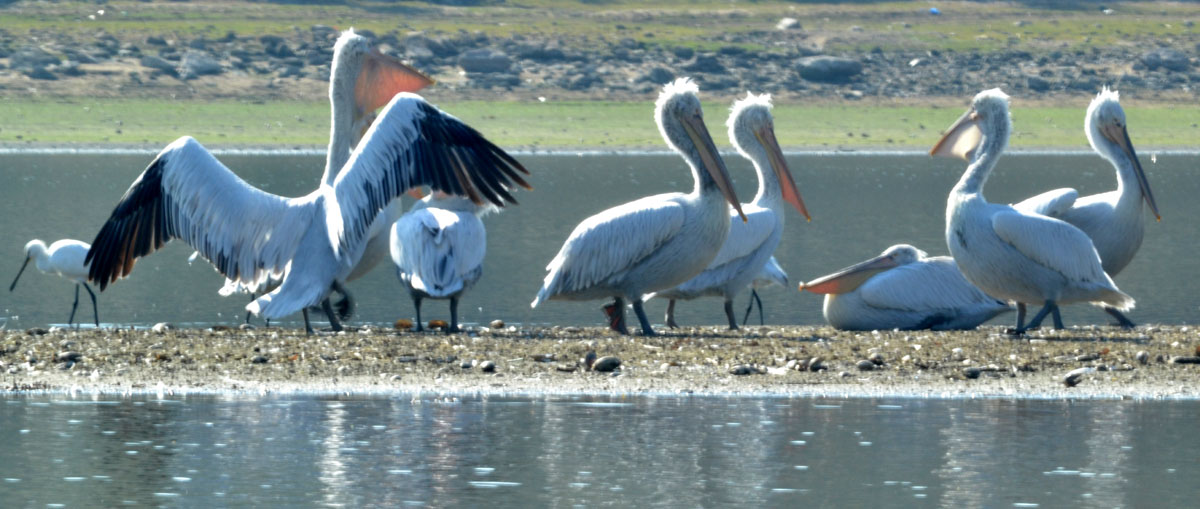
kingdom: Animalia
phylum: Chordata
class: Aves
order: Pelecaniformes
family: Pelecanidae
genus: Pelecanus
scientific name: Pelecanus onocrotalus
